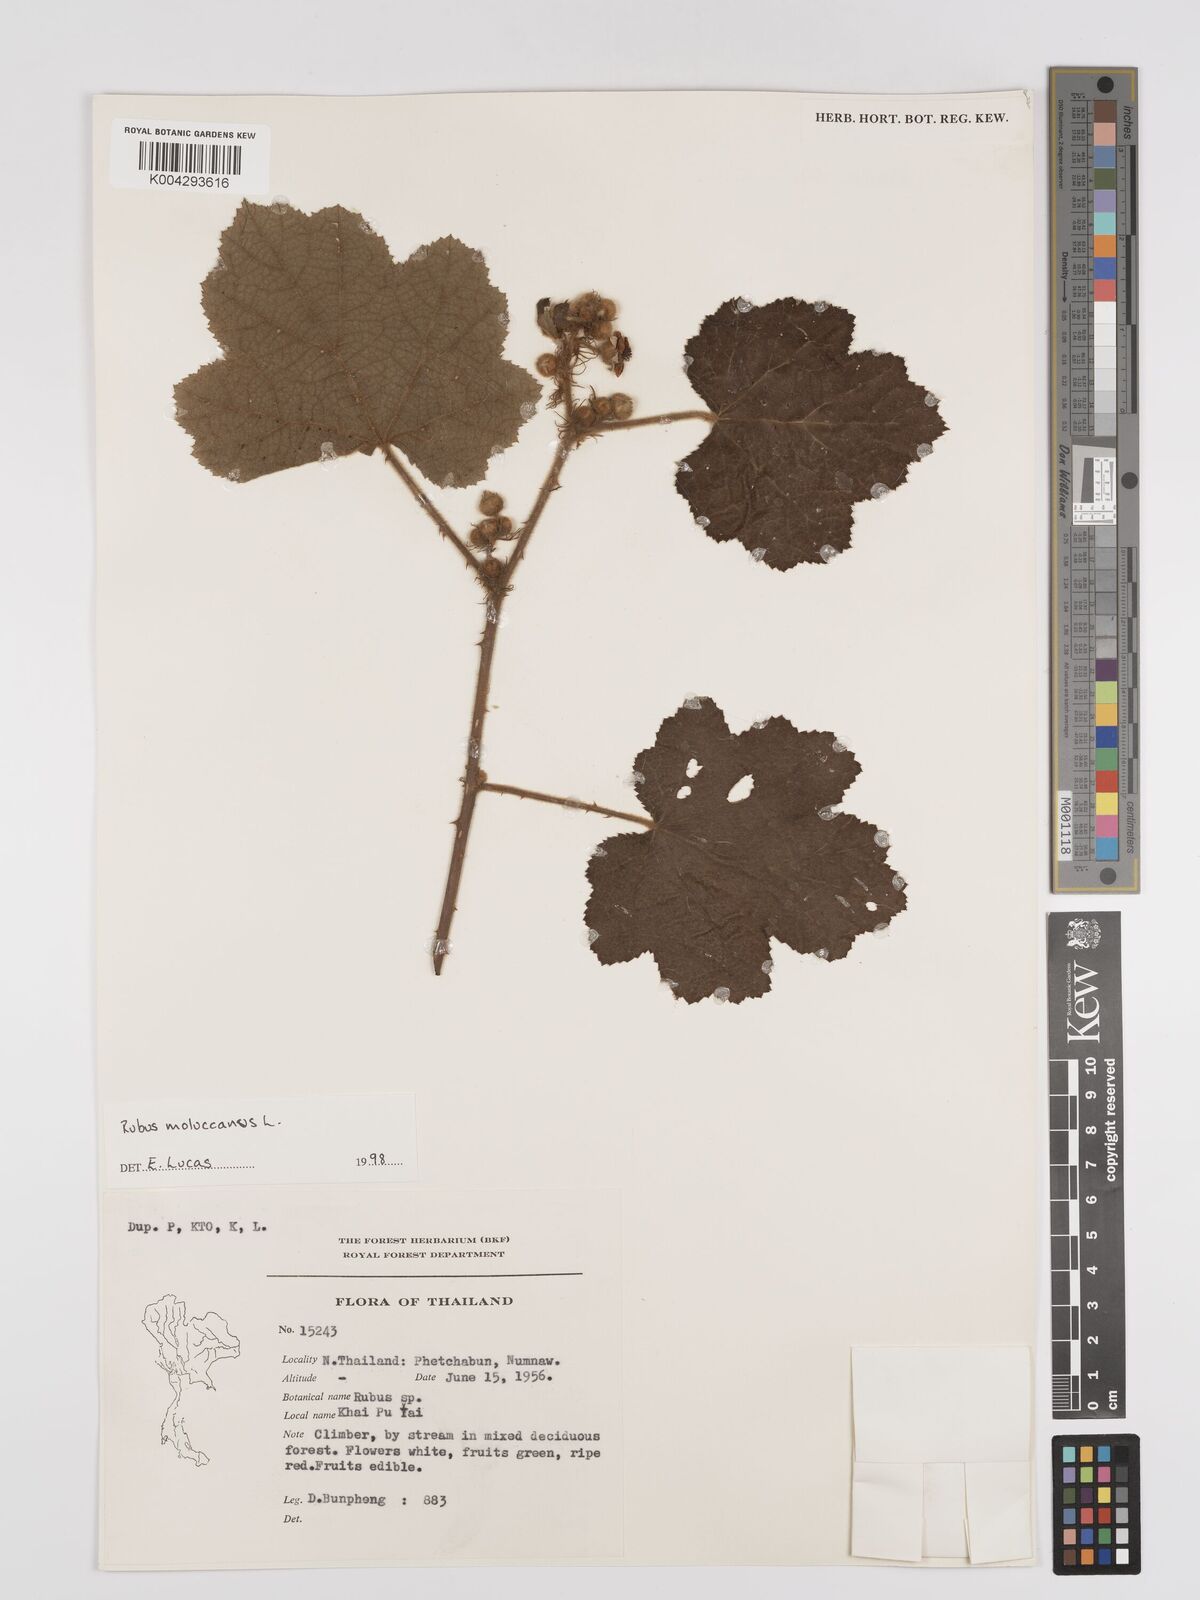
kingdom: Plantae
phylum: Tracheophyta
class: Magnoliopsida
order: Rosales
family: Rosaceae
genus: Rubus
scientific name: Rubus moluccanus
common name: Wild raspberry
